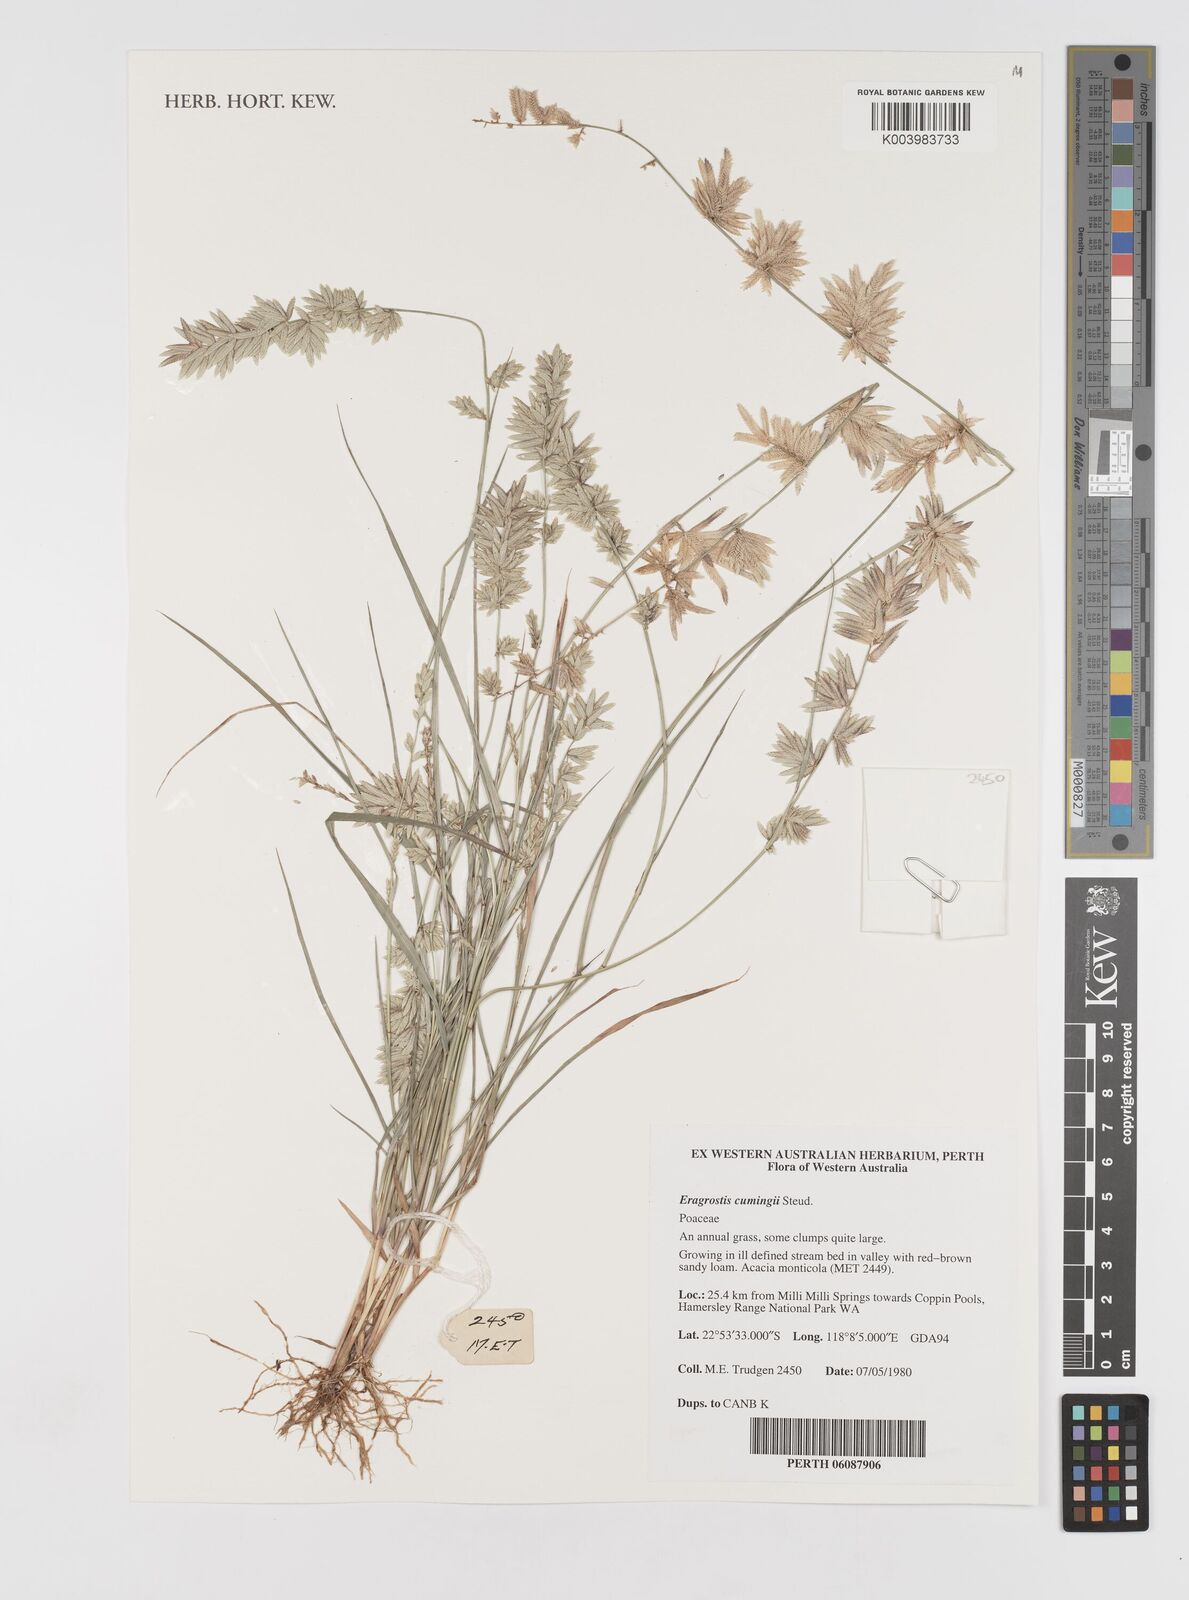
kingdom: Plantae
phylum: Tracheophyta
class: Liliopsida
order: Poales
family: Poaceae
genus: Eragrostis
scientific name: Eragrostis cumingii
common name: Cuming's lovegrass
